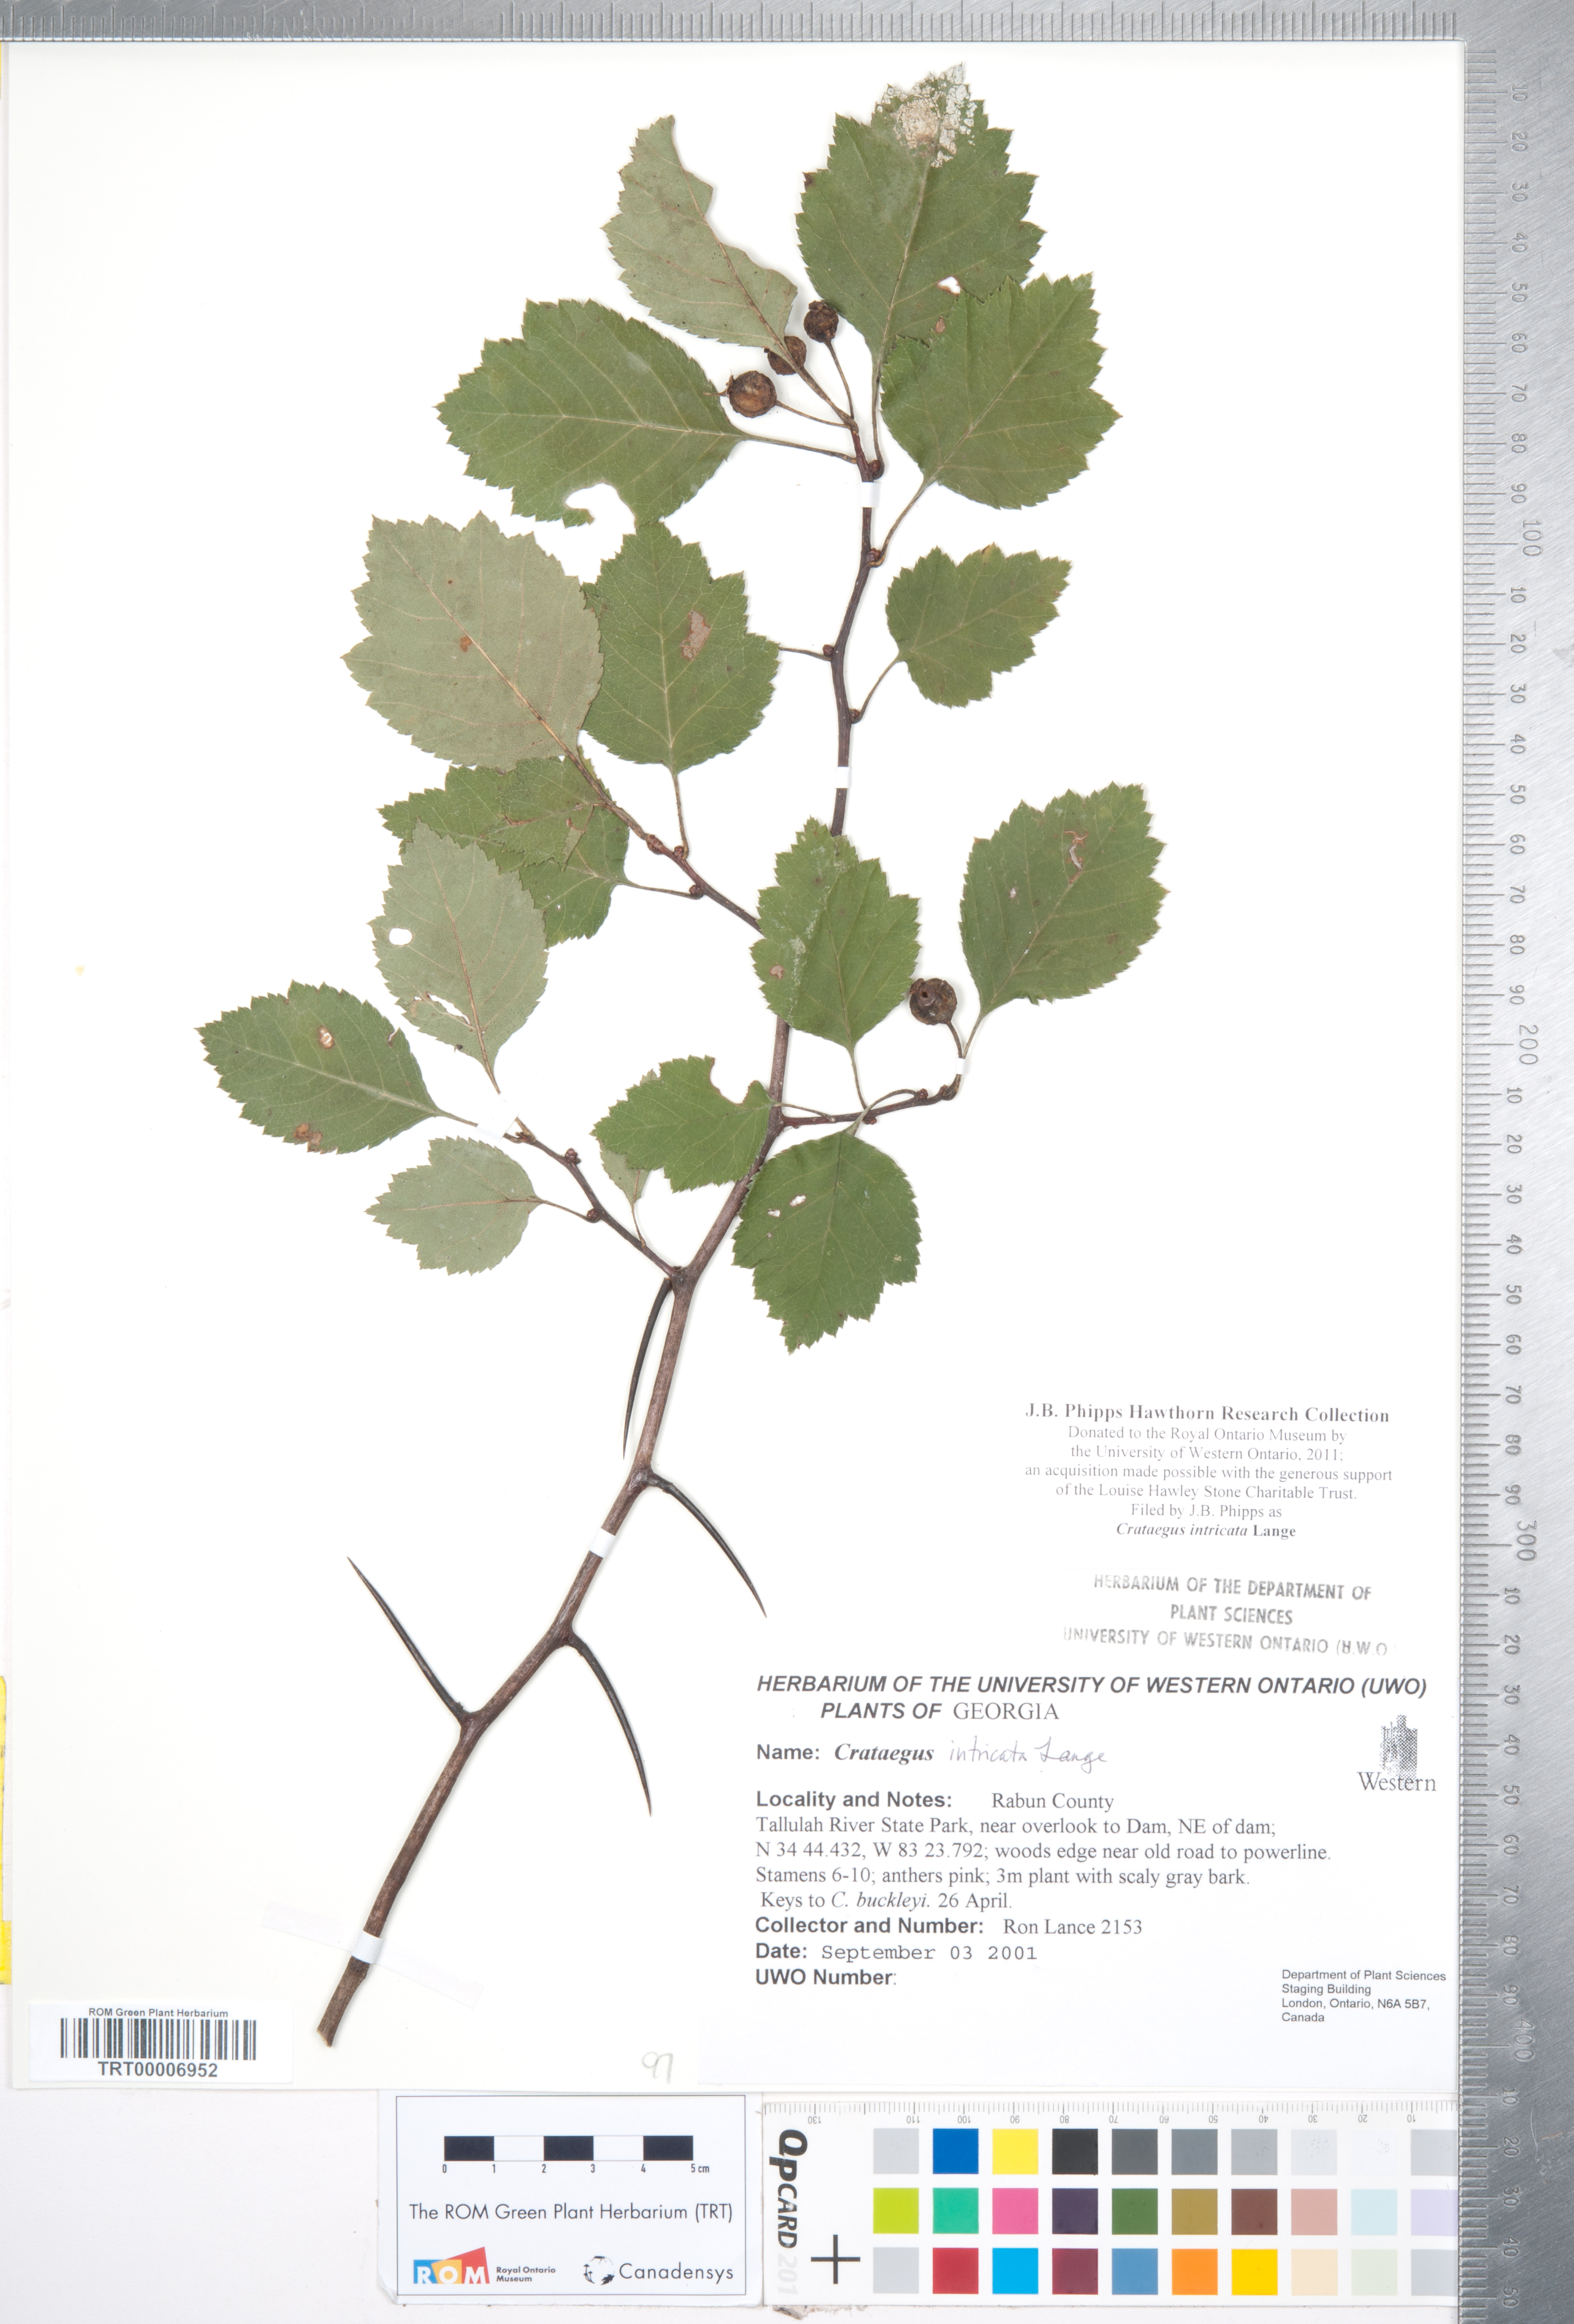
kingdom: Plantae
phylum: Tracheophyta
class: Magnoliopsida
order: Rosales
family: Rosaceae
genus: Crataegus
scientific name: Crataegus intricata
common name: Biltmore hawthorn
